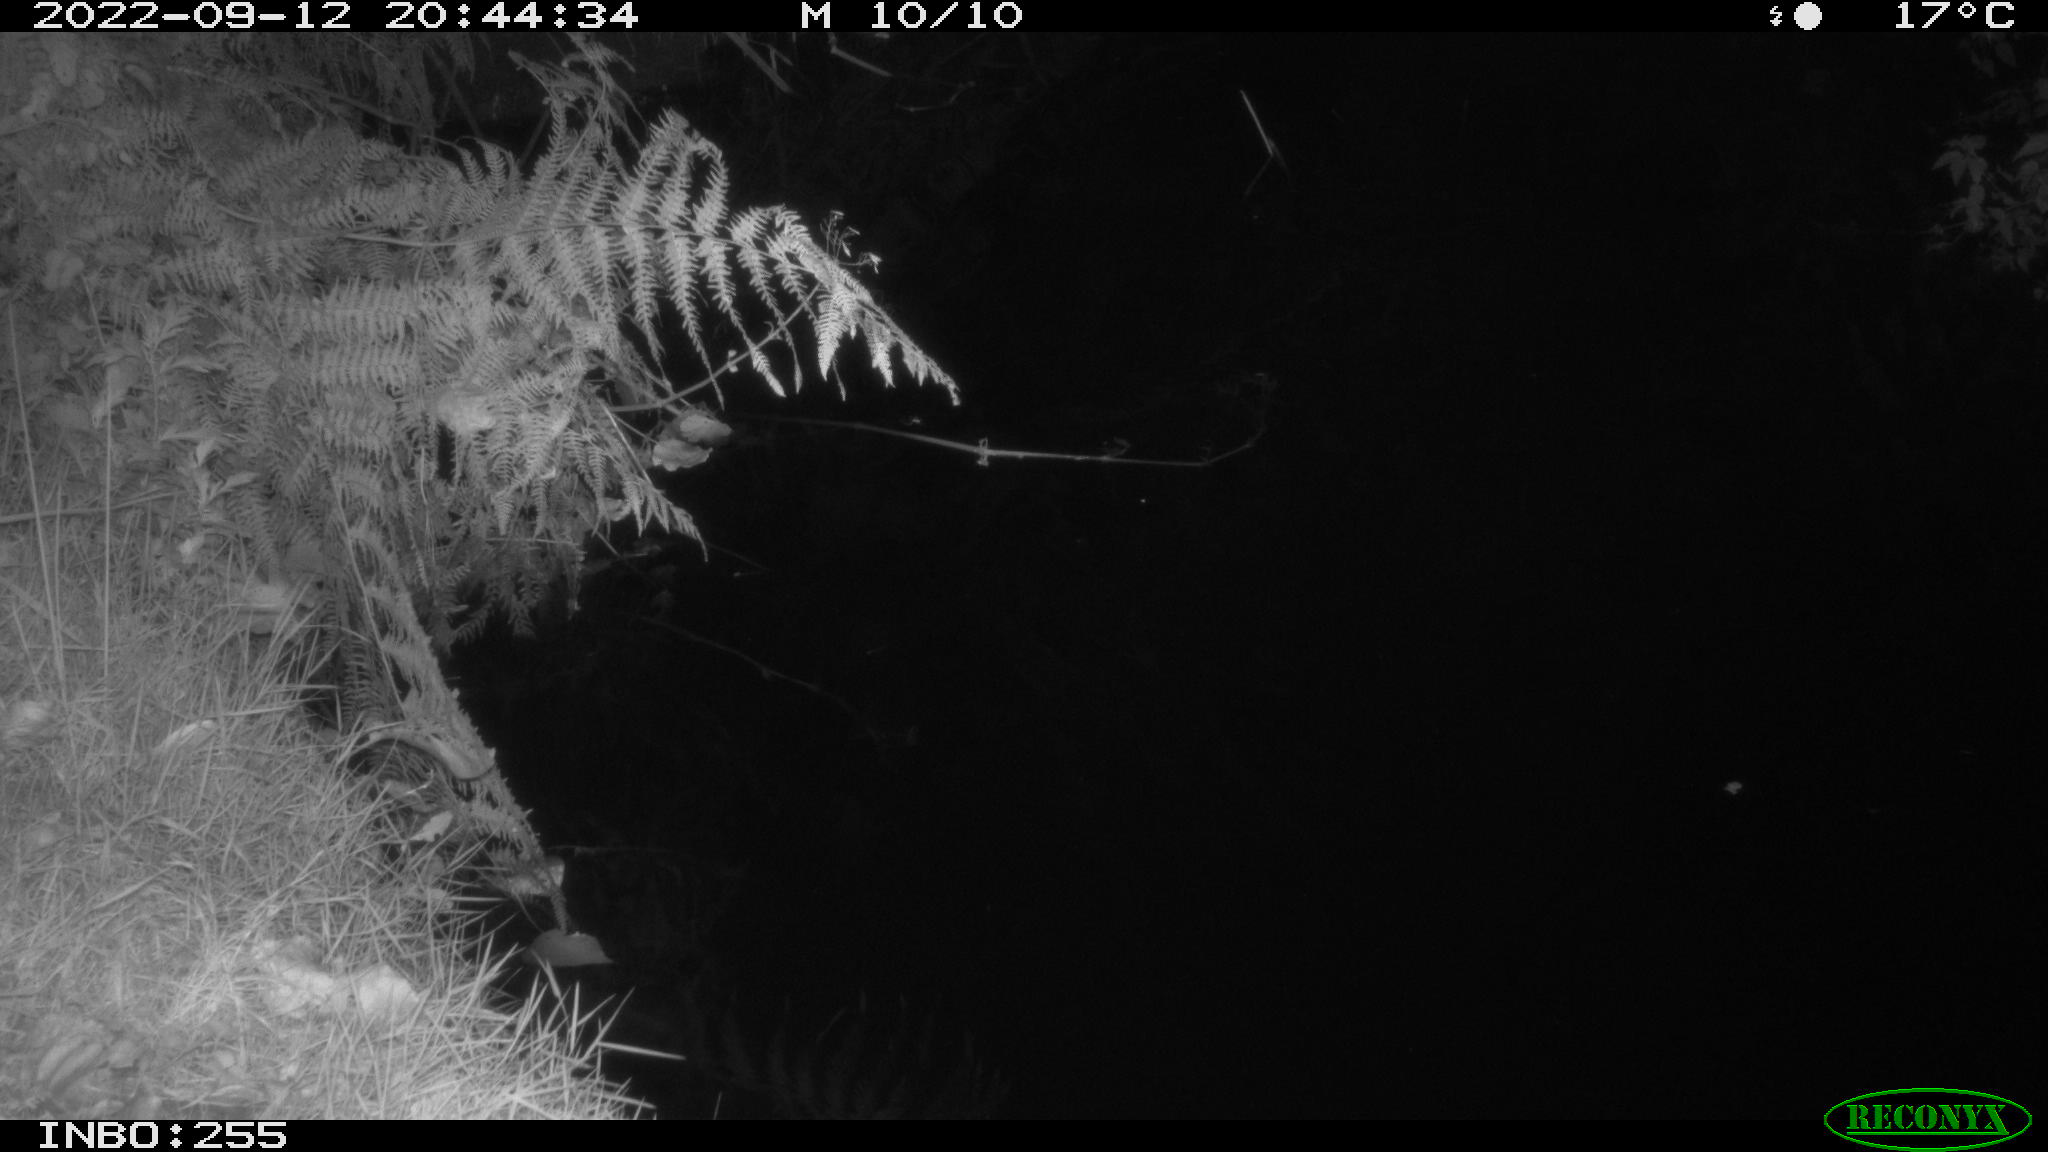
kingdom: Animalia
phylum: Chordata
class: Aves
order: Anseriformes
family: Anatidae
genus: Anas
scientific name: Anas platyrhynchos
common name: Mallard
